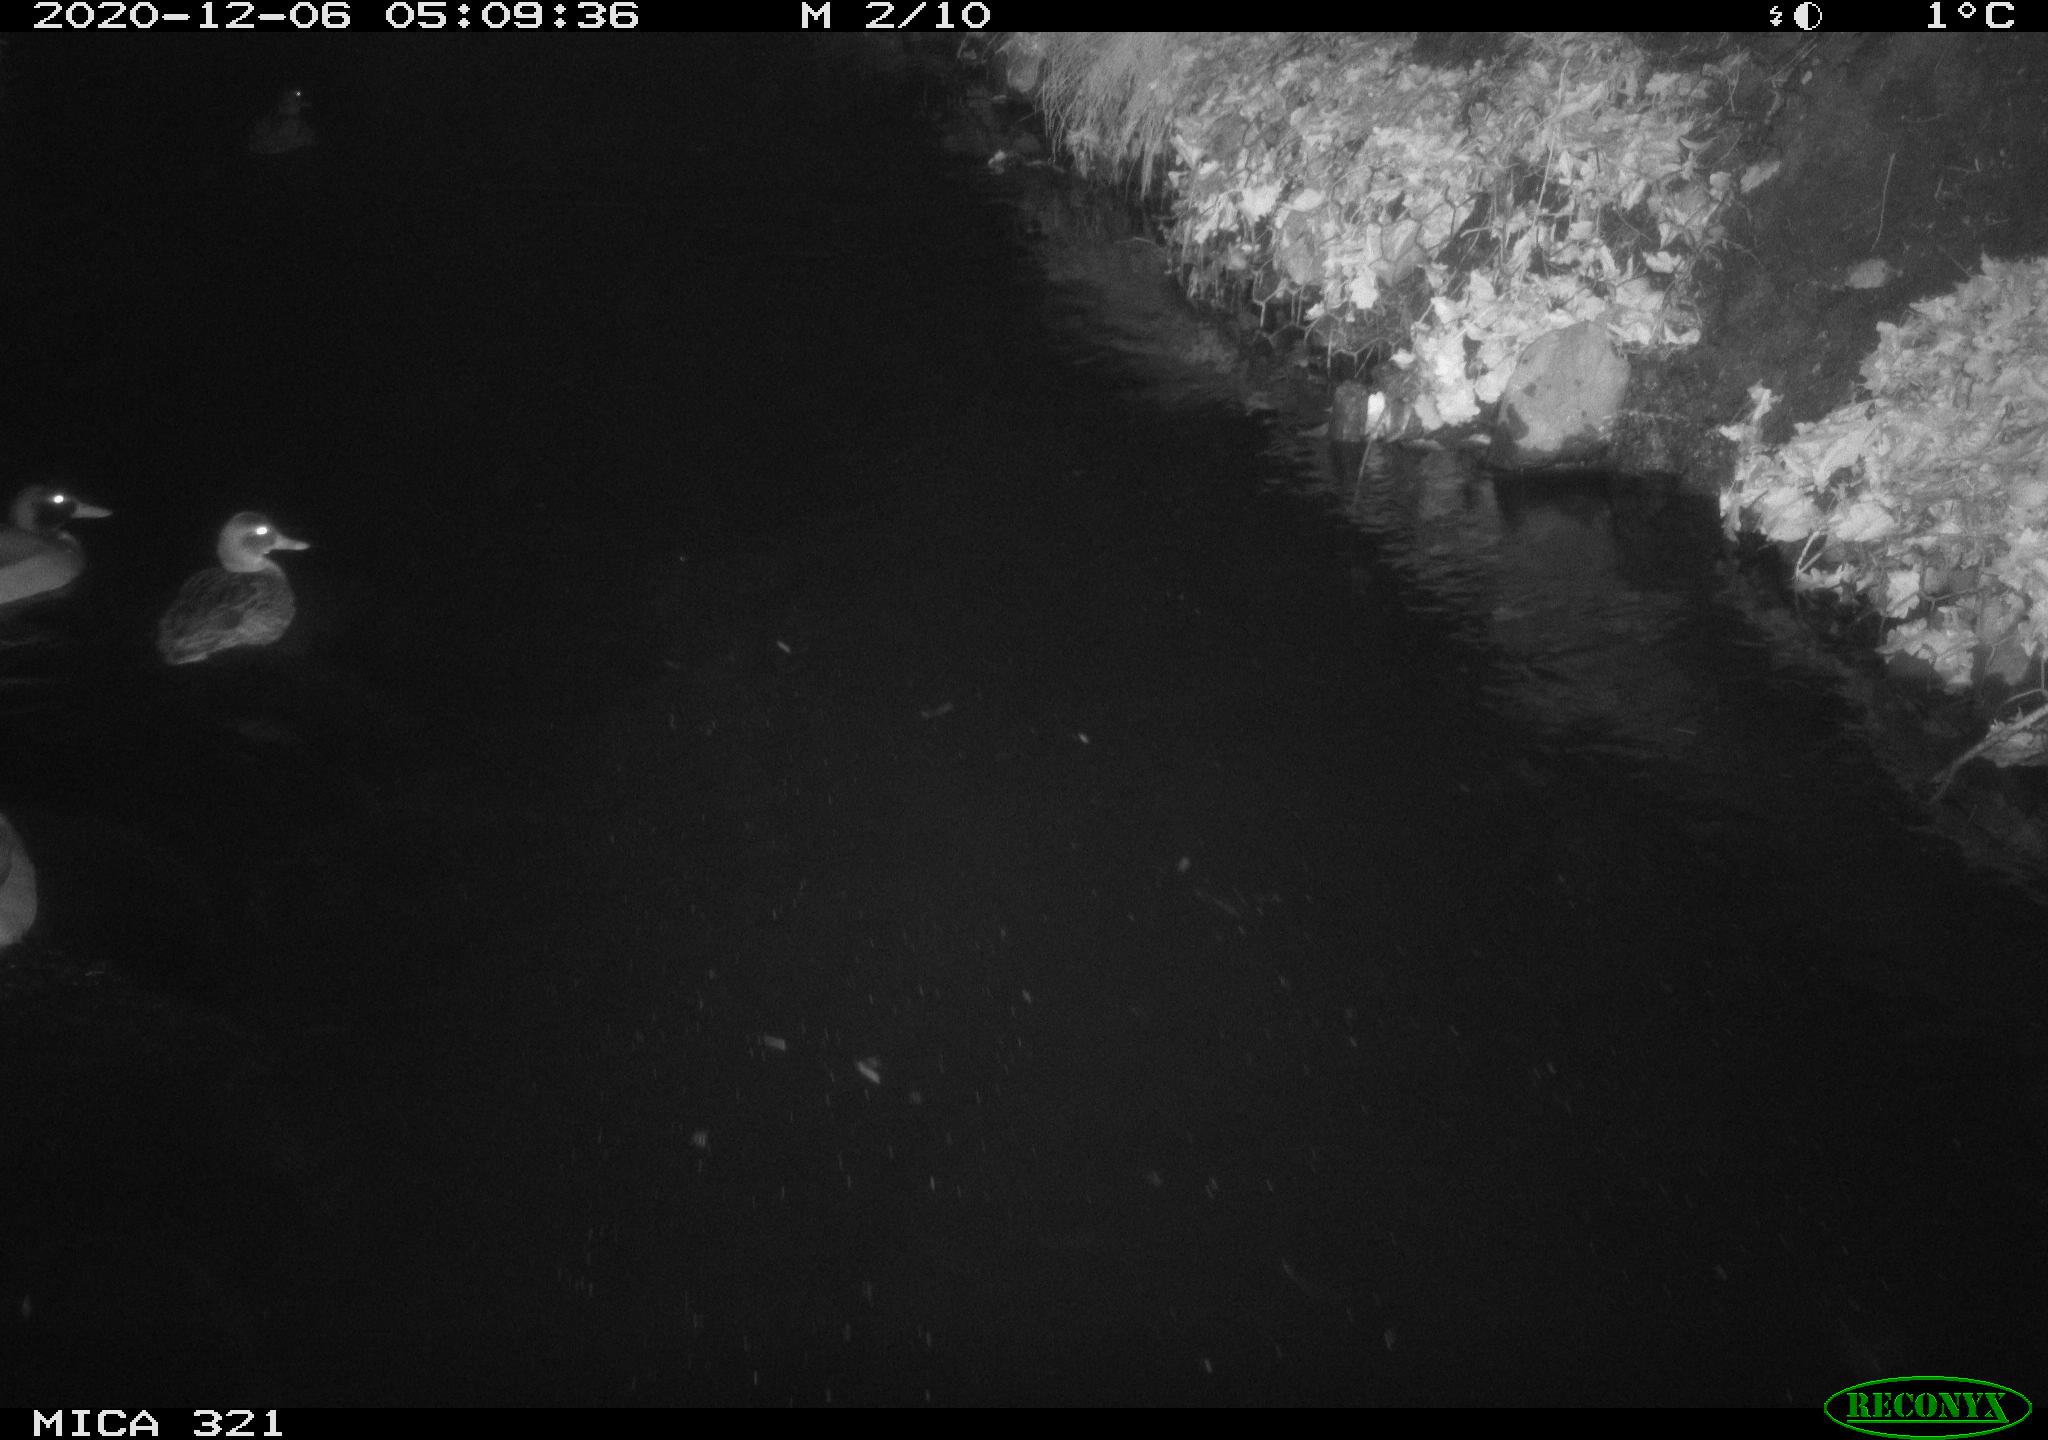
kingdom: Animalia
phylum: Chordata
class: Aves
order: Anseriformes
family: Anatidae
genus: Anas
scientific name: Anas platyrhynchos
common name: Mallard
